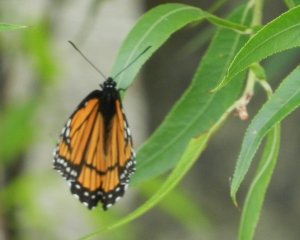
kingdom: Animalia
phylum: Arthropoda
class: Insecta
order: Lepidoptera
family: Nymphalidae
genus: Limenitis
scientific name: Limenitis archippus
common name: Viceroy
